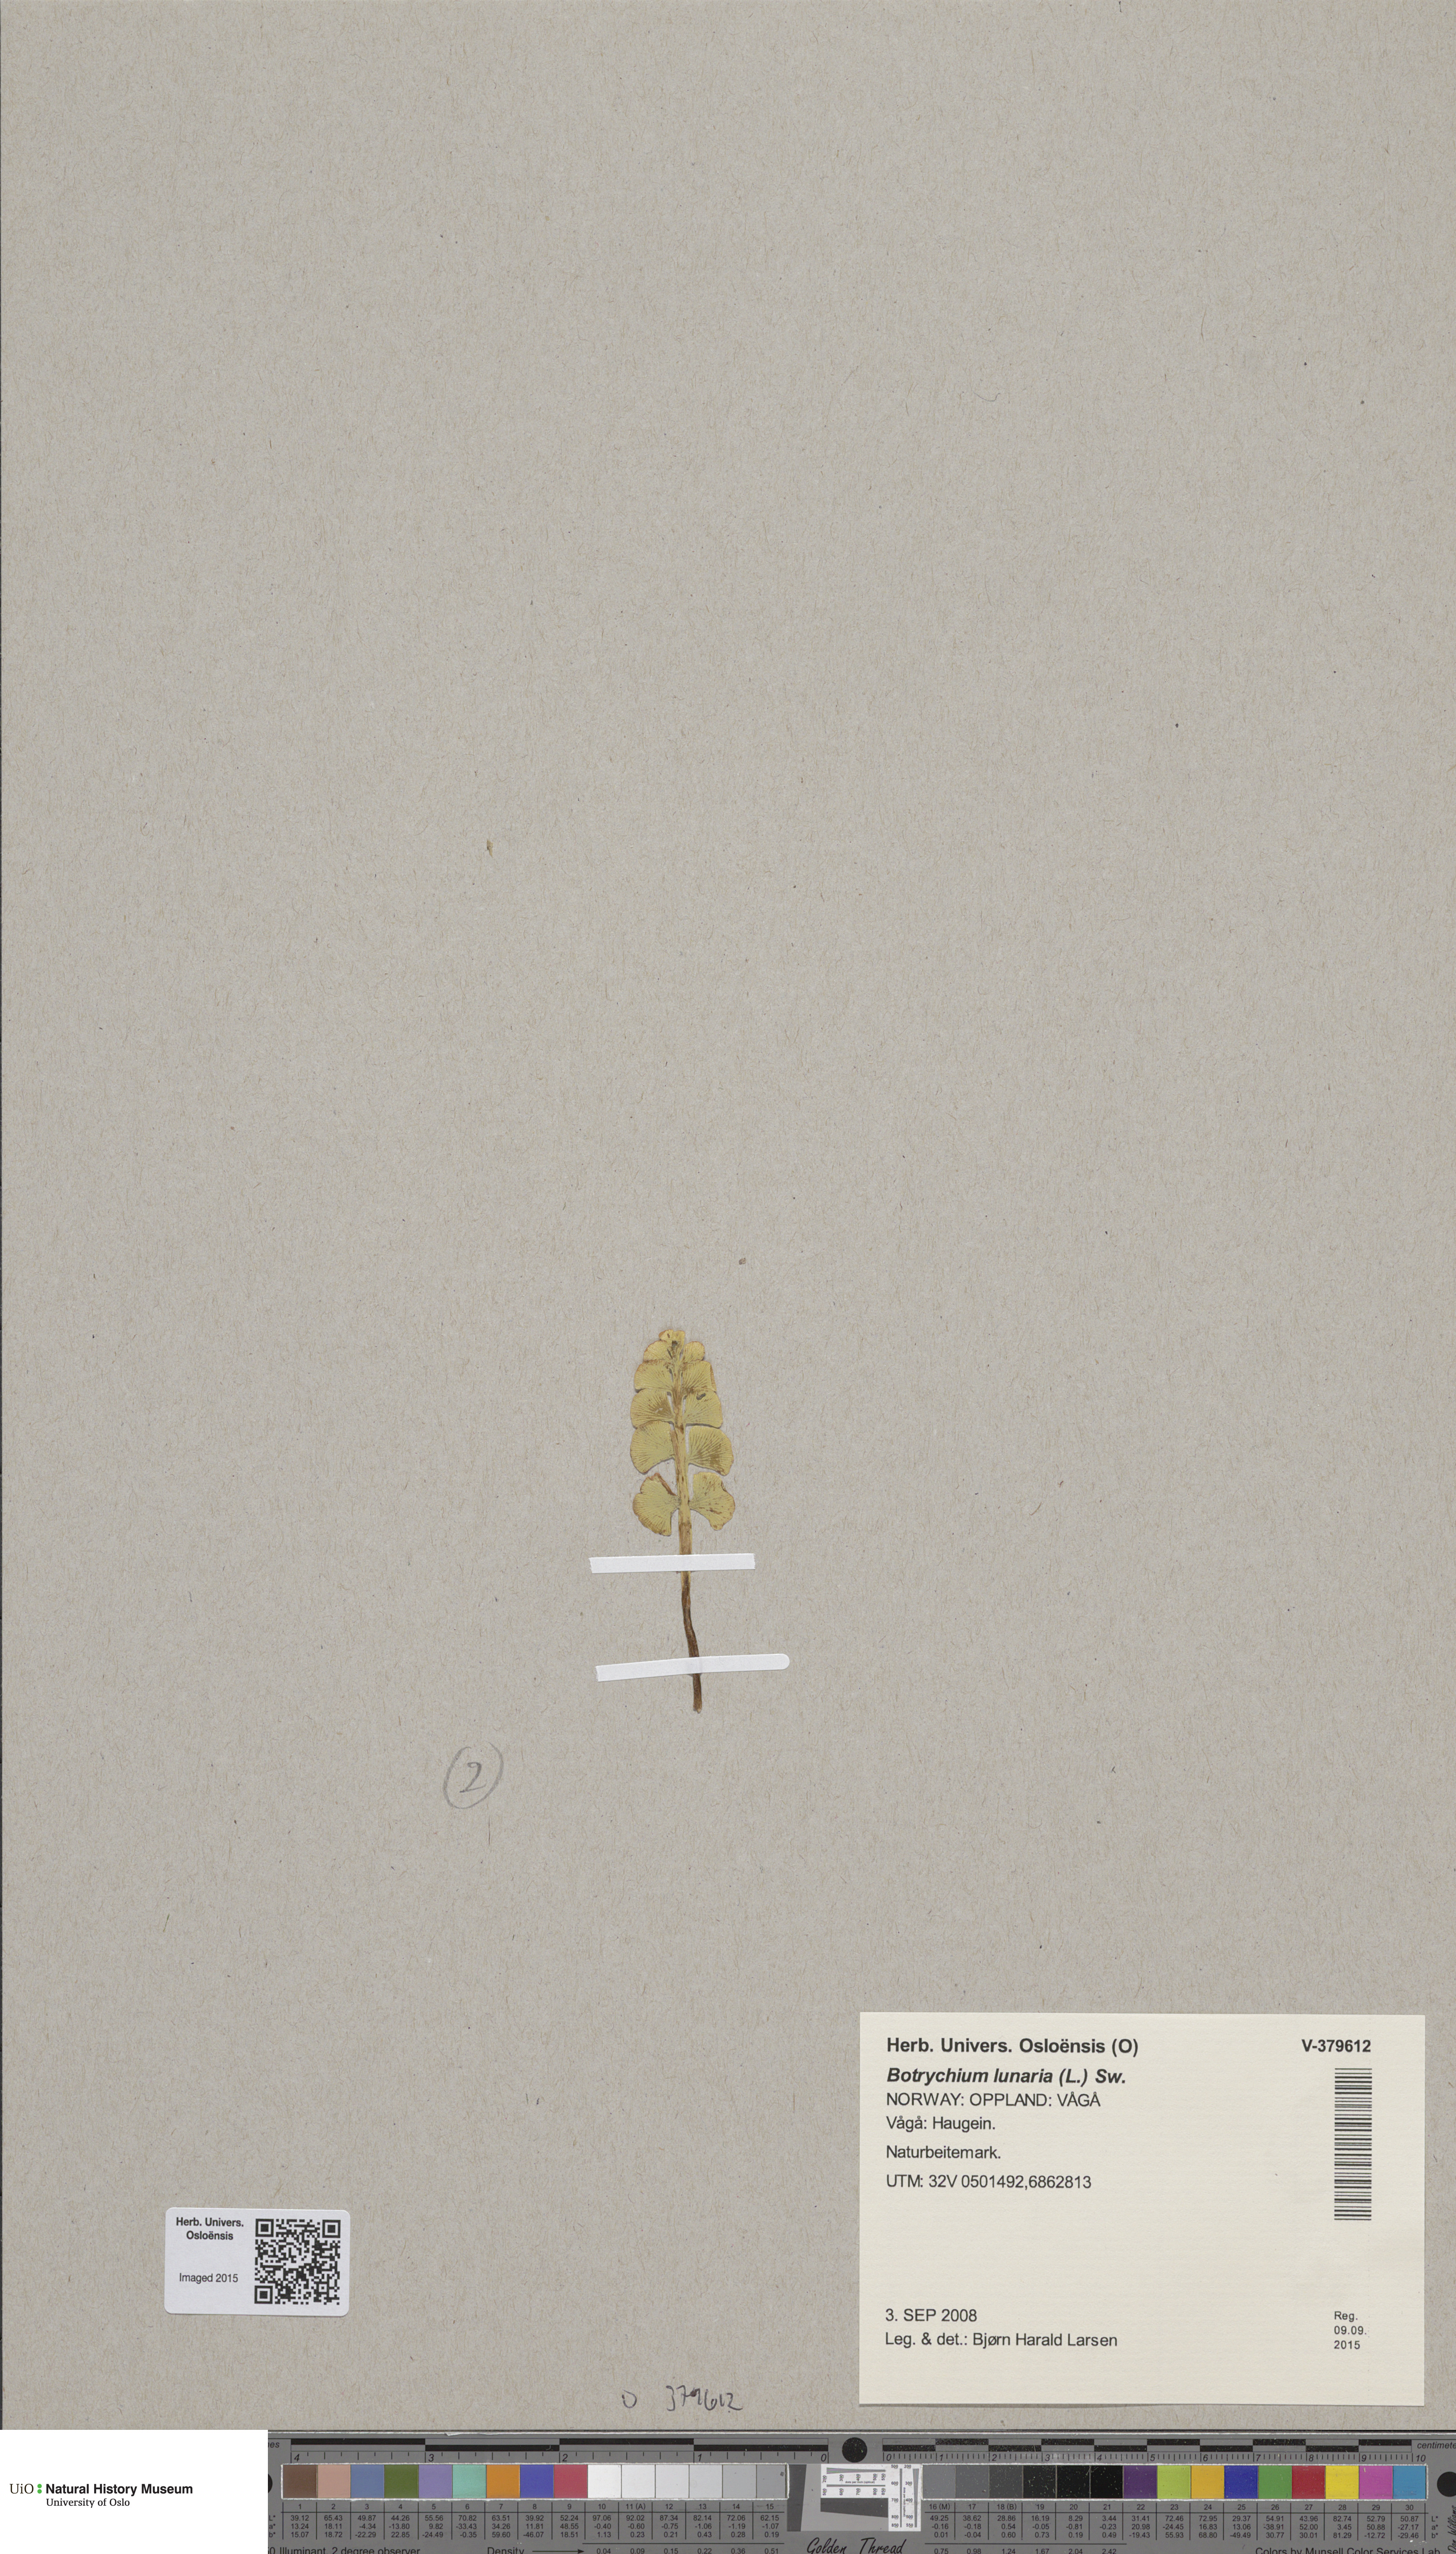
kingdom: Plantae
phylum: Tracheophyta
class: Polypodiopsida
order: Ophioglossales
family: Ophioglossaceae
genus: Botrychium
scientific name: Botrychium lunaria
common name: Moonwort
